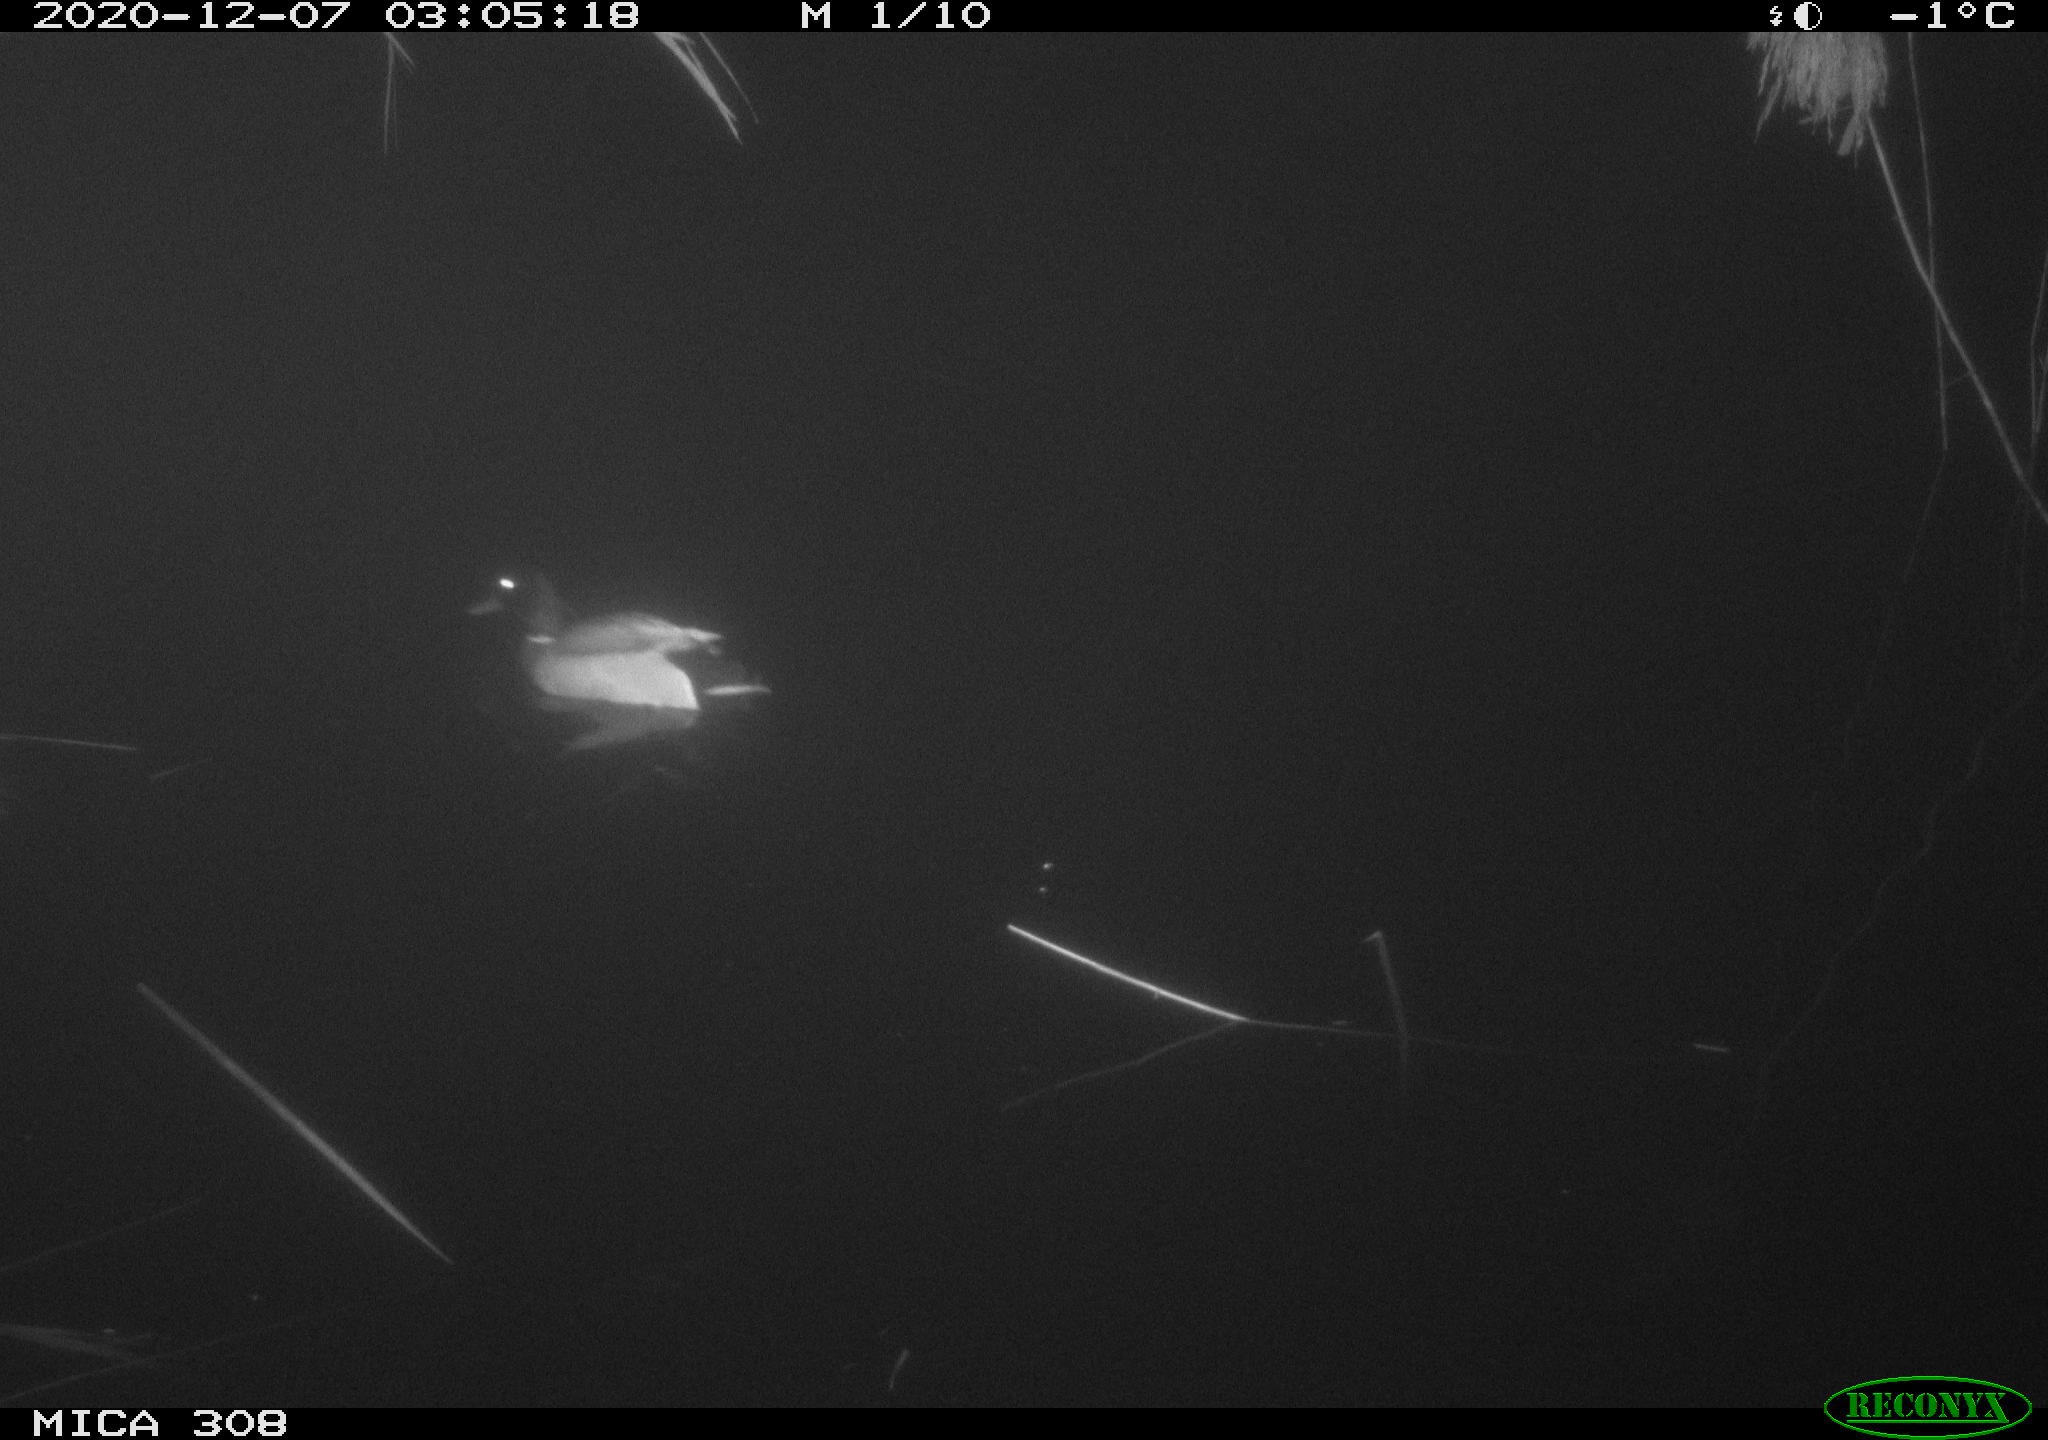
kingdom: Animalia
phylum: Chordata
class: Aves
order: Anseriformes
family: Anatidae
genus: Anas
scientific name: Anas platyrhynchos
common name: Mallard
